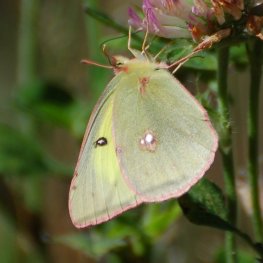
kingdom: Animalia
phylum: Arthropoda
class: Insecta
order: Lepidoptera
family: Pieridae
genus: Colias
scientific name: Colias eurytheme
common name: Orange Sulphur
